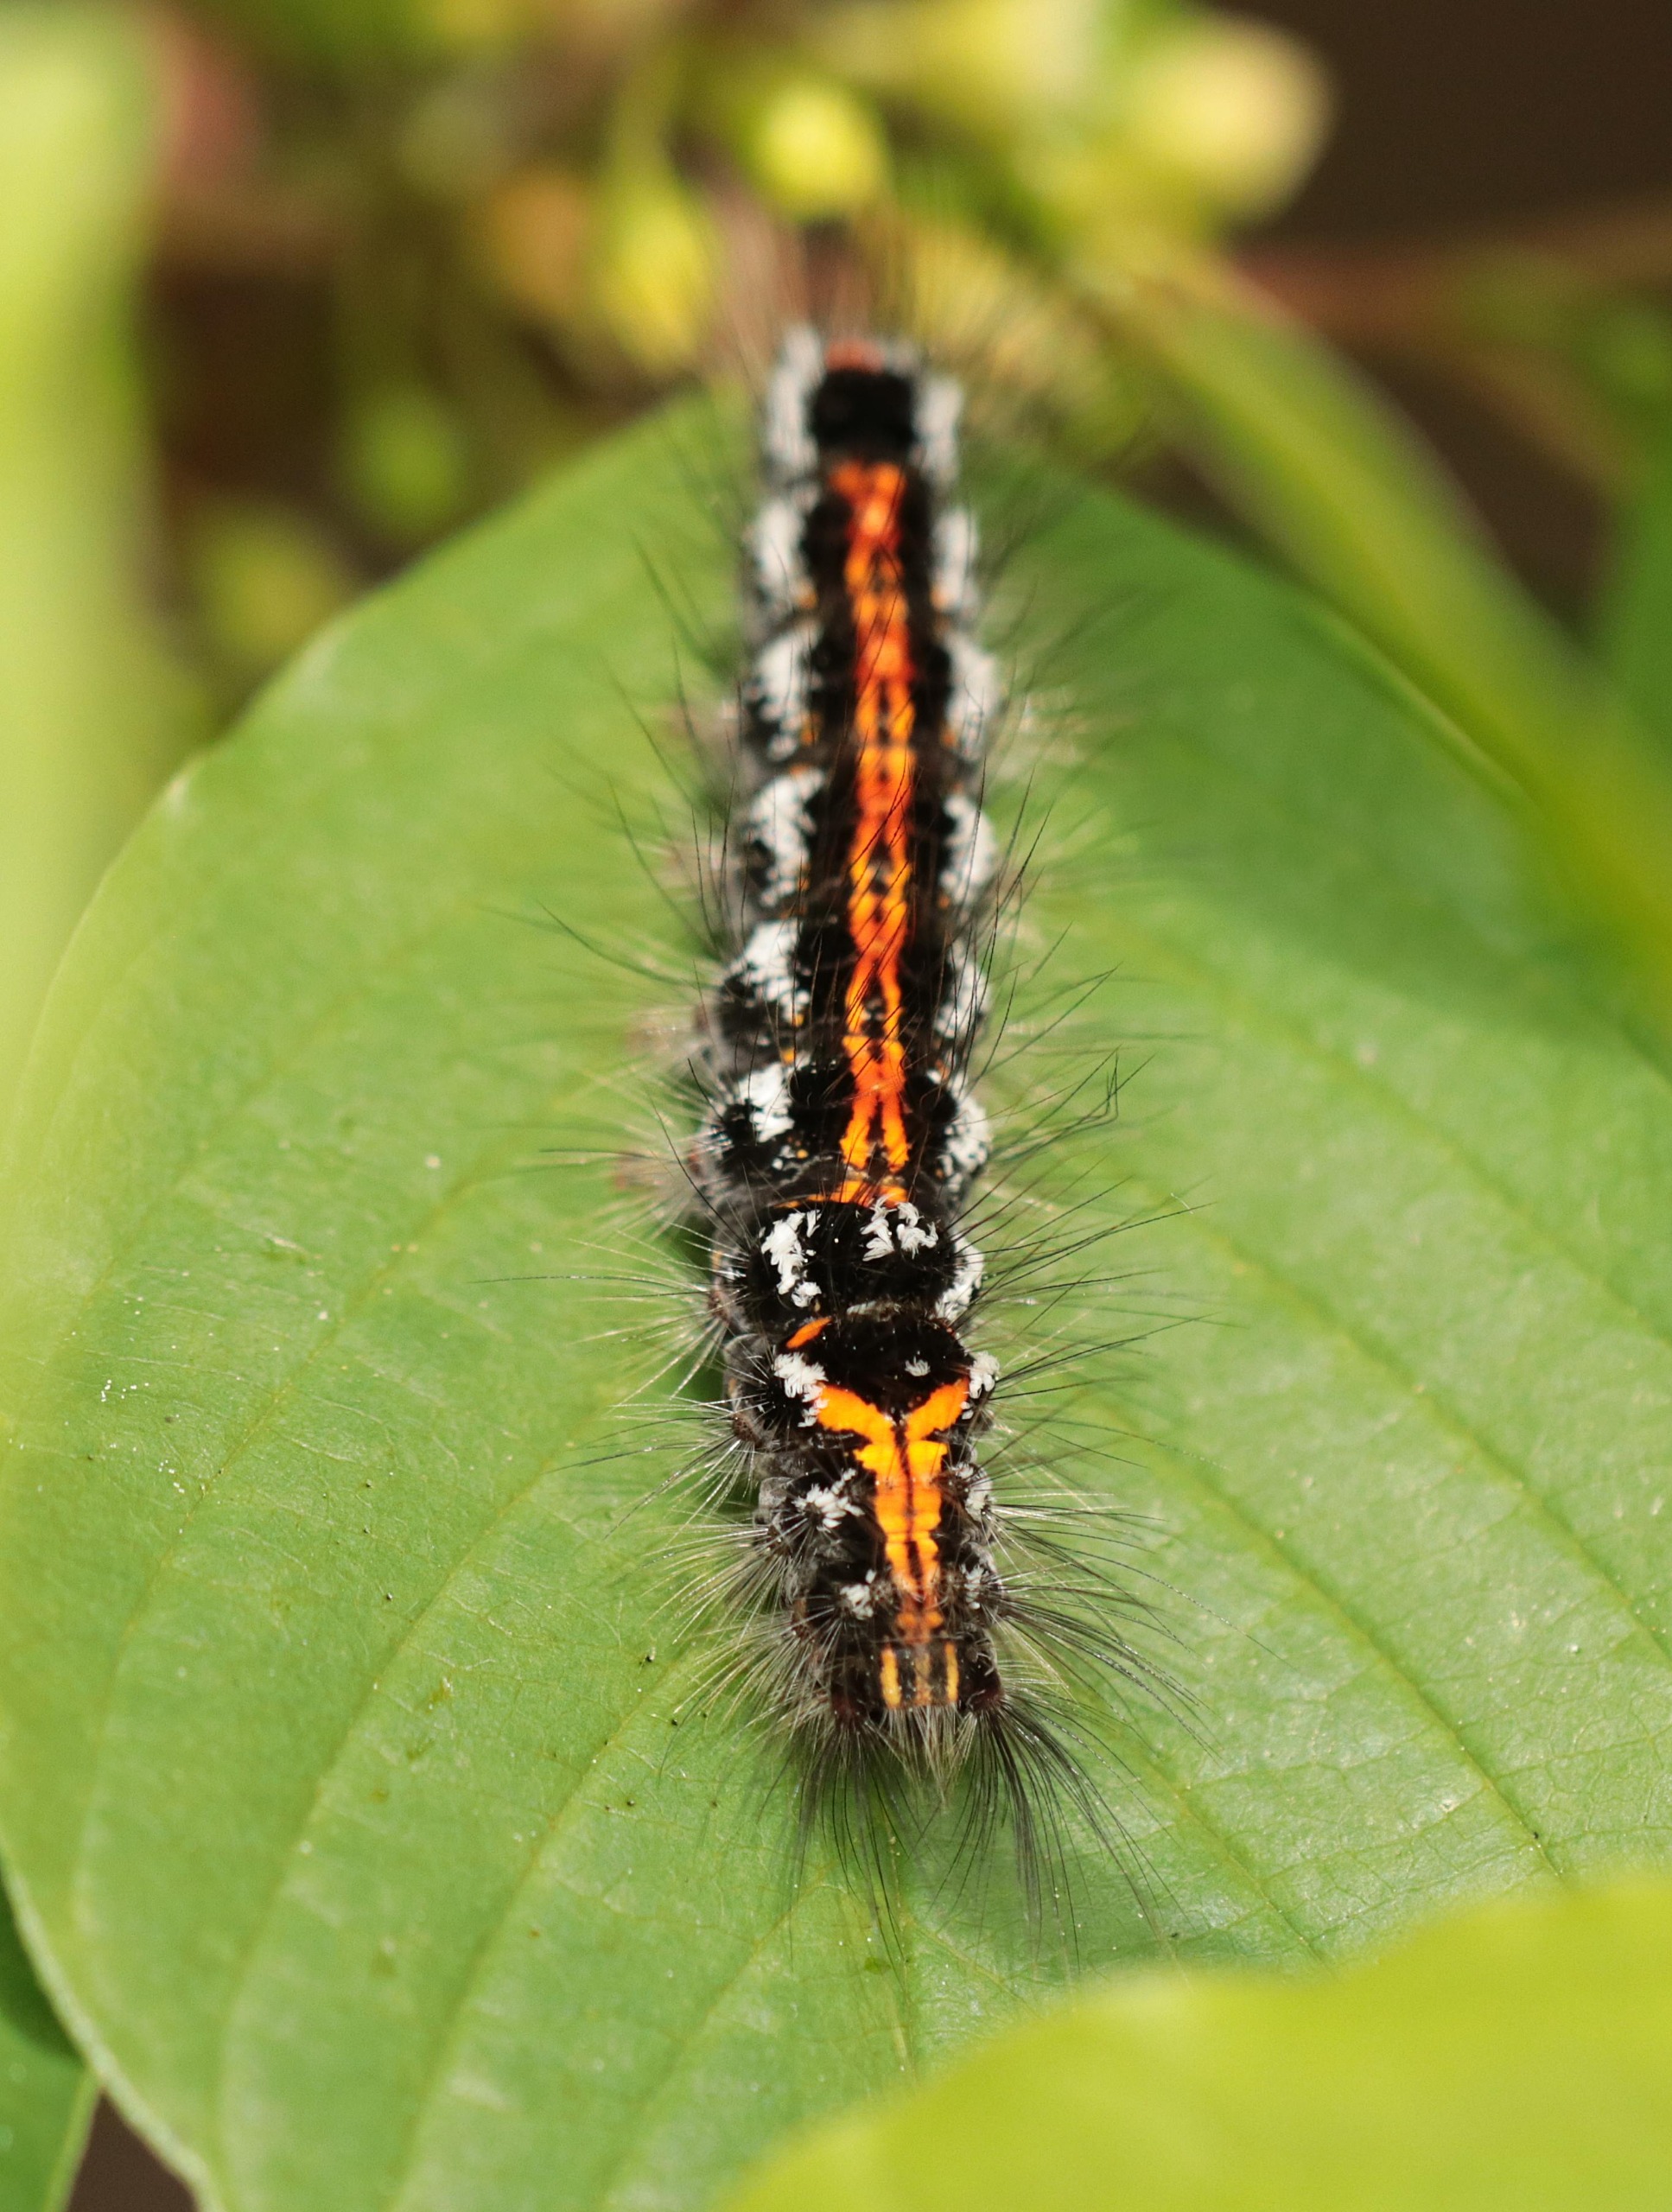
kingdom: Animalia
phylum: Arthropoda
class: Insecta
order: Lepidoptera
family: Erebidae
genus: Sphrageidus
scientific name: Sphrageidus similis
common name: Gulhale
